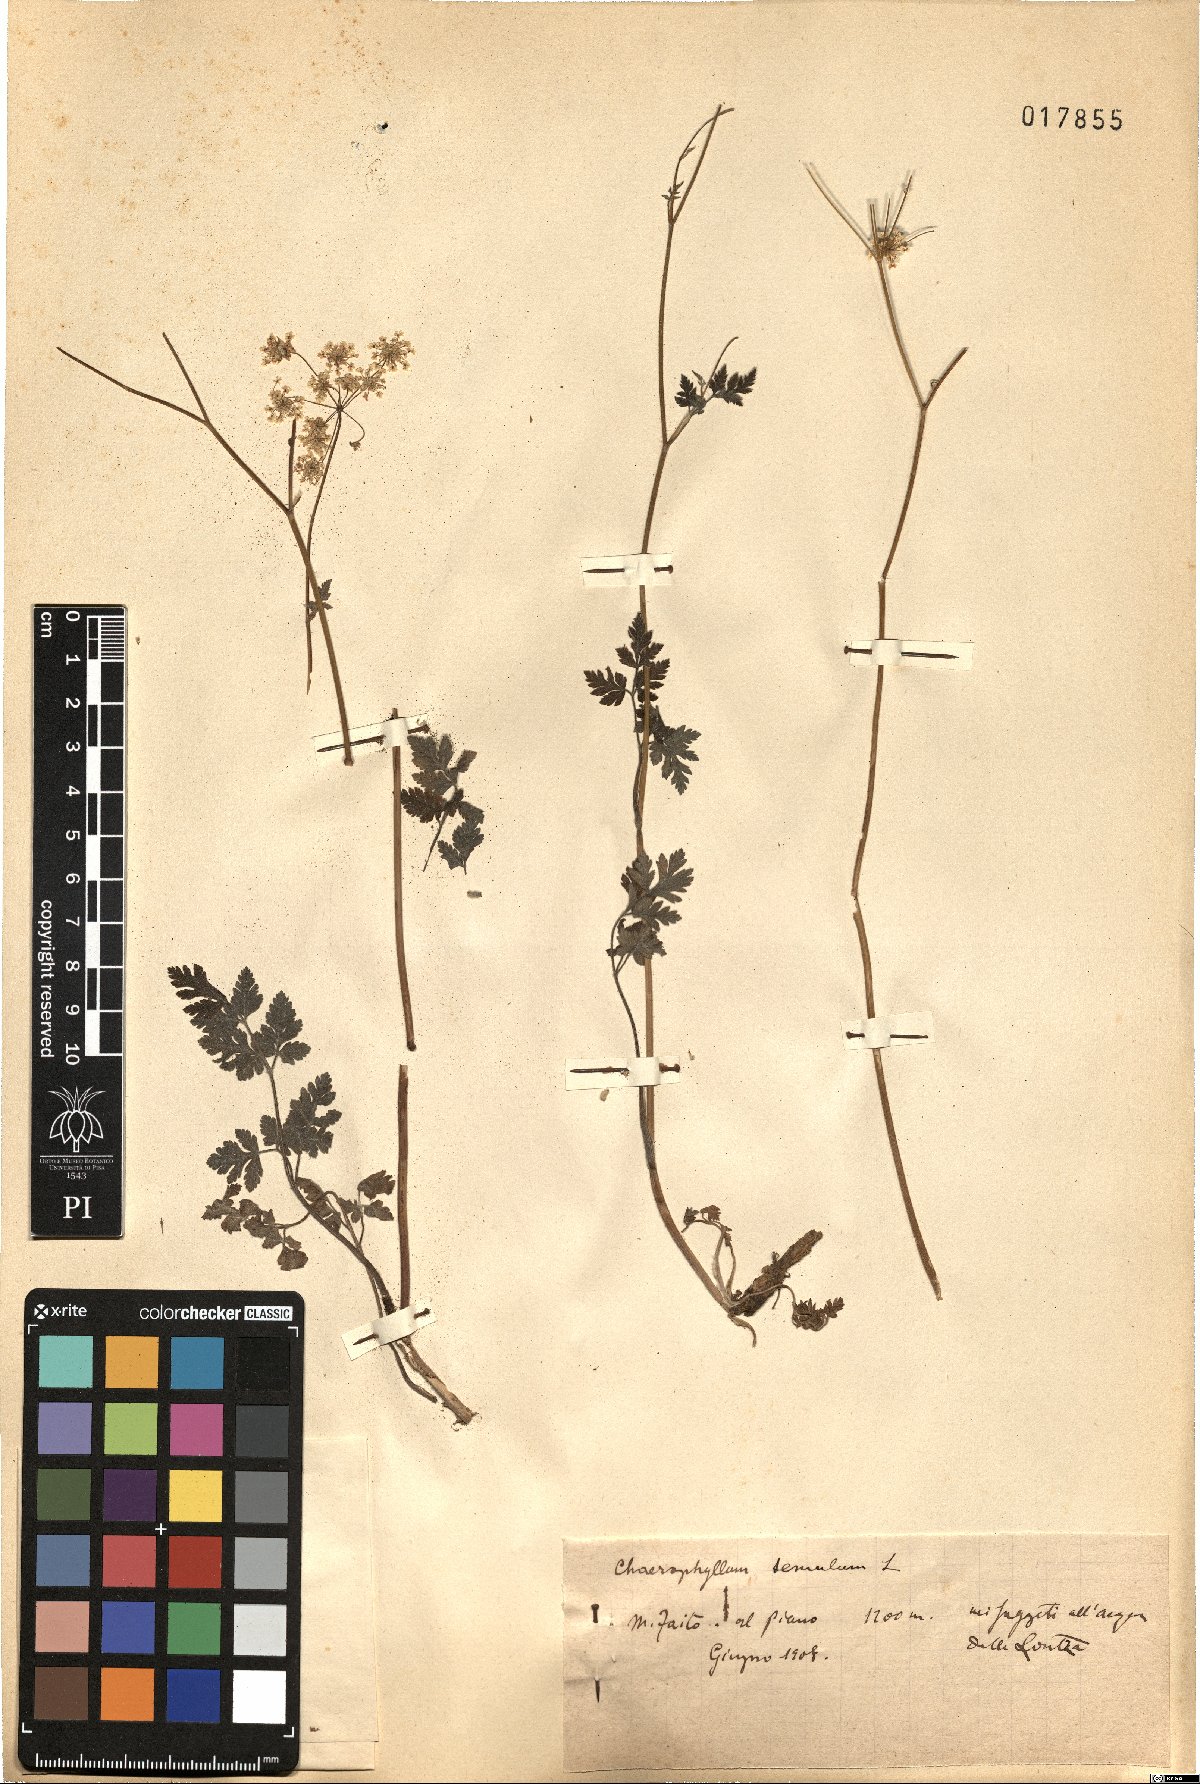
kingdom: Plantae
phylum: Tracheophyta
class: Magnoliopsida
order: Apiales
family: Apiaceae
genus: Chaerophyllum
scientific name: Chaerophyllum temulum
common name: Rough chervil
